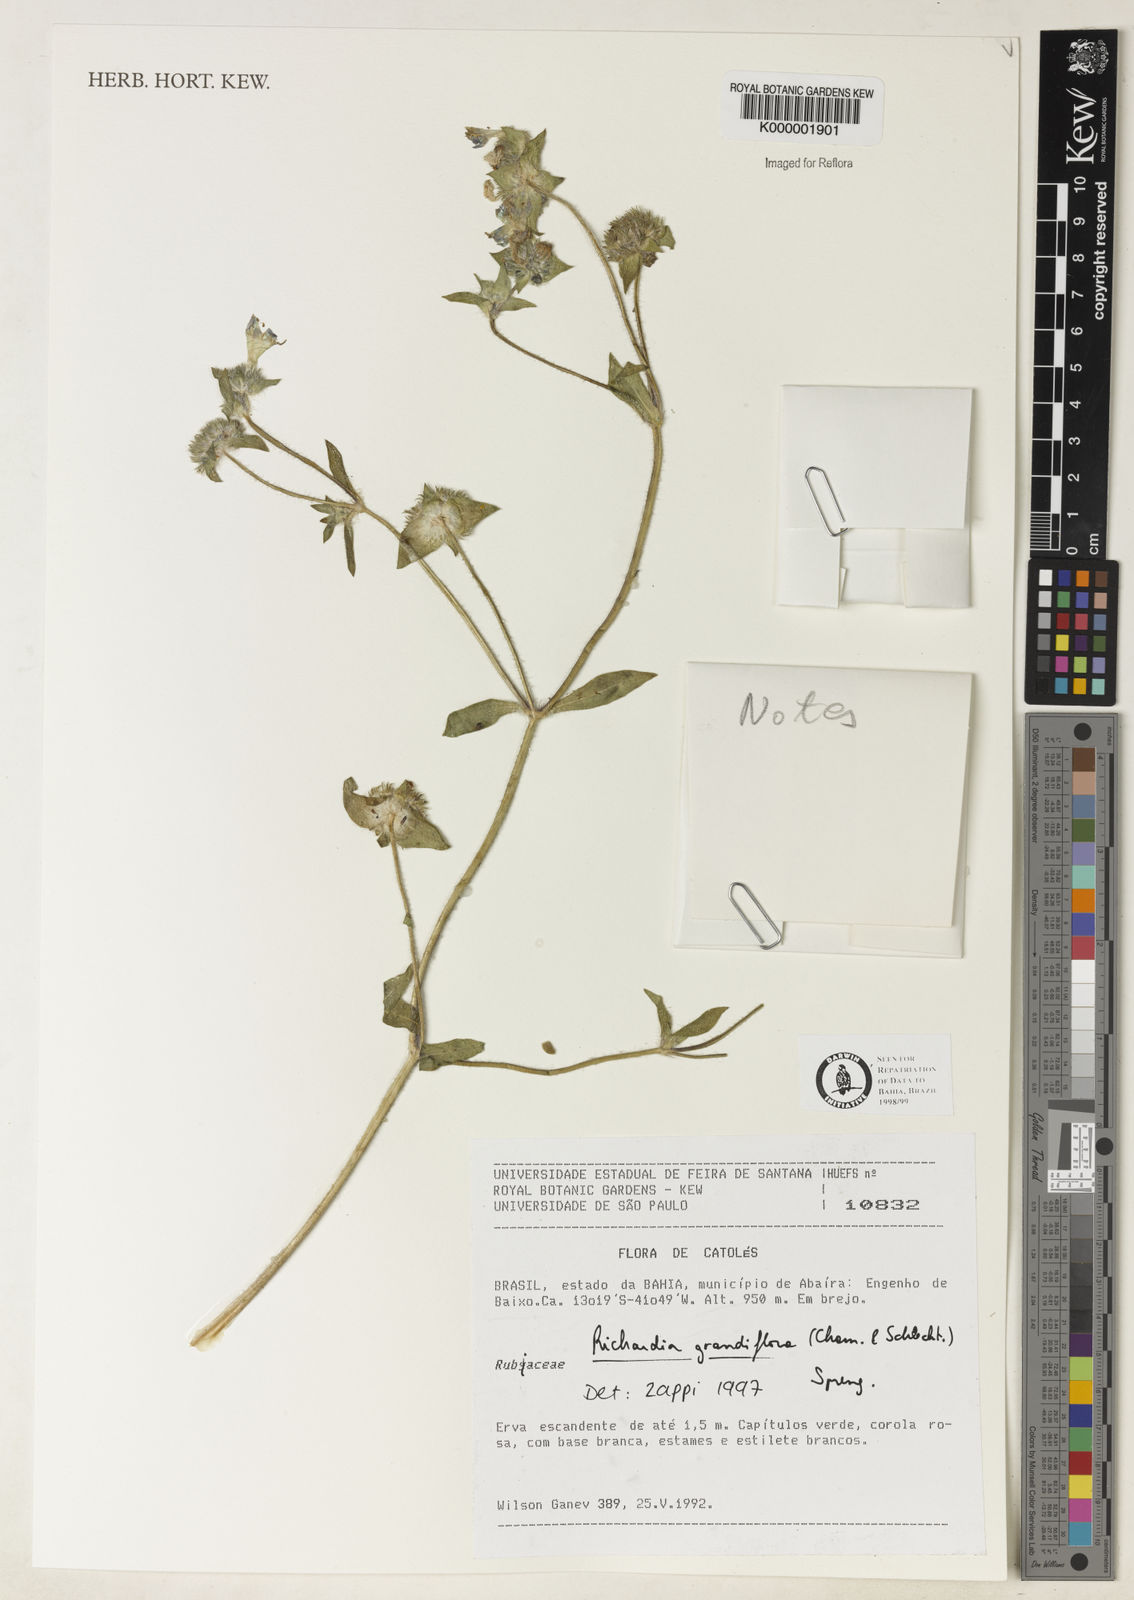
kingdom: Plantae
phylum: Tracheophyta
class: Magnoliopsida
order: Gentianales
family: Rubiaceae
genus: Richardia
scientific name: Richardia grandiflora
